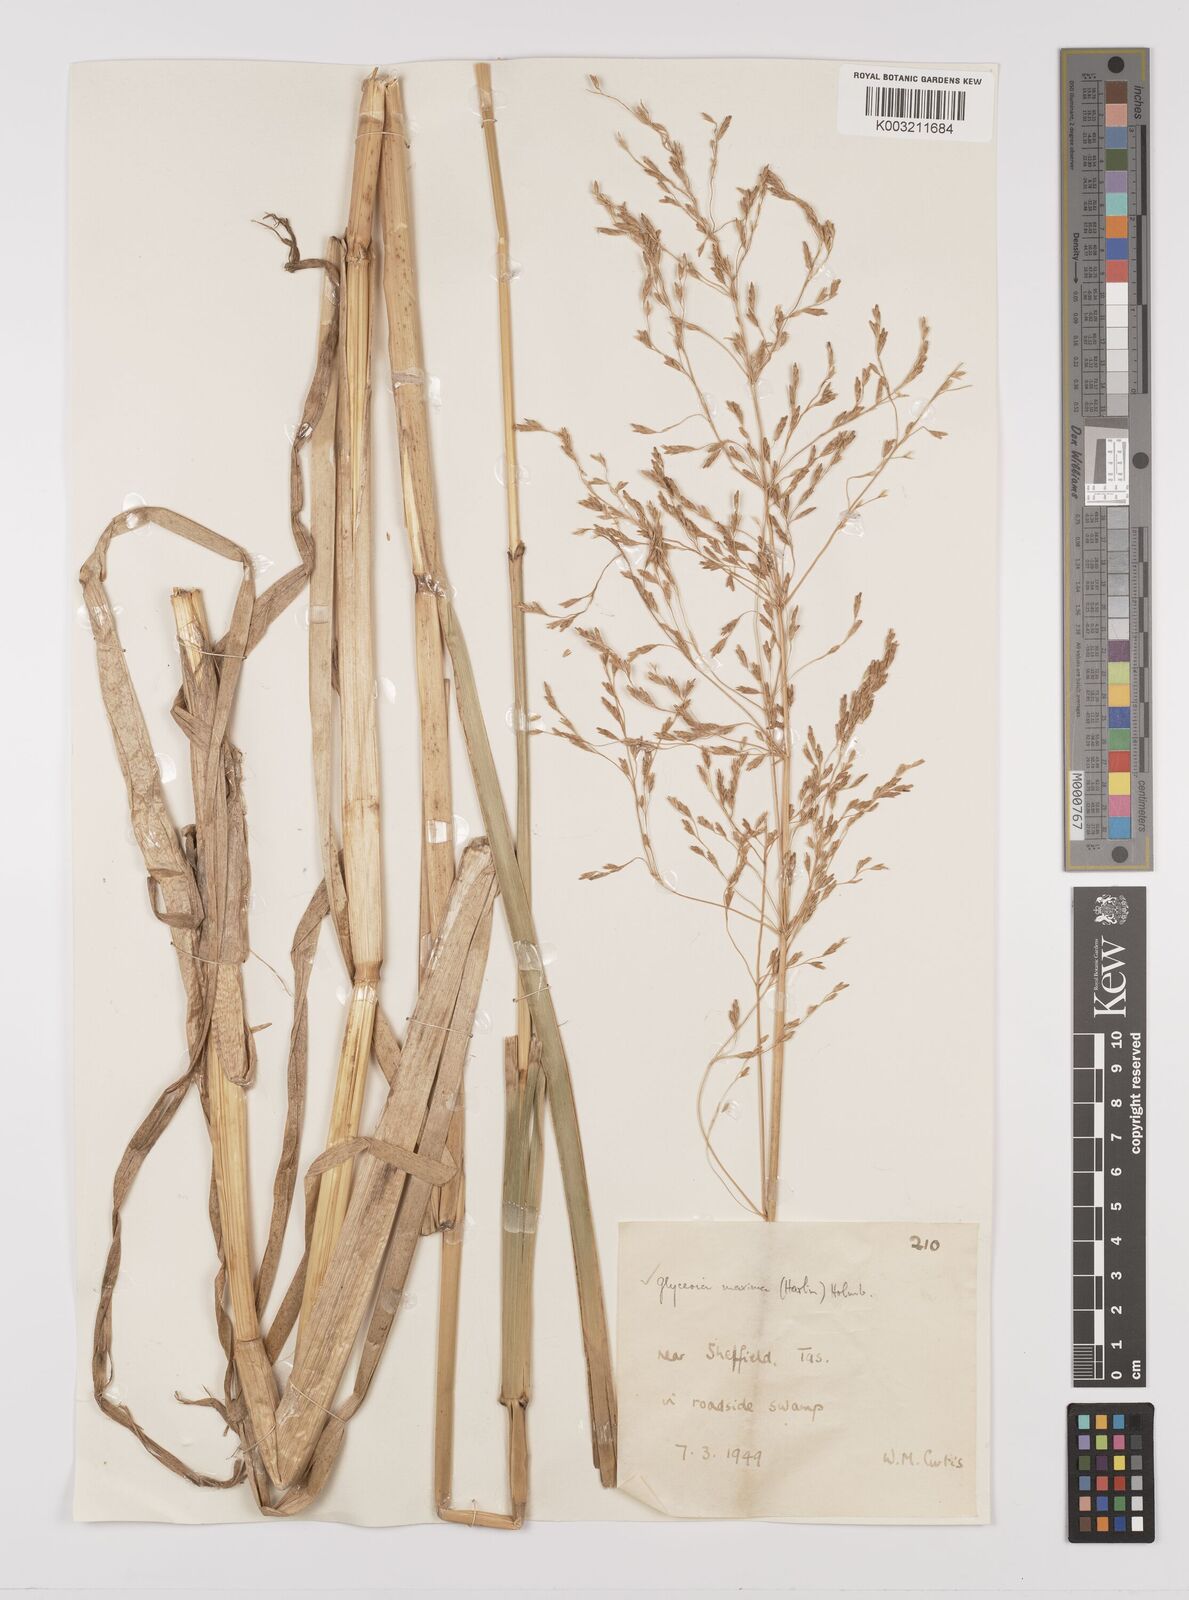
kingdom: Plantae
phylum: Tracheophyta
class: Liliopsida
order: Poales
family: Poaceae
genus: Glyceria
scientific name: Glyceria maxima
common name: Reed mannagrass
